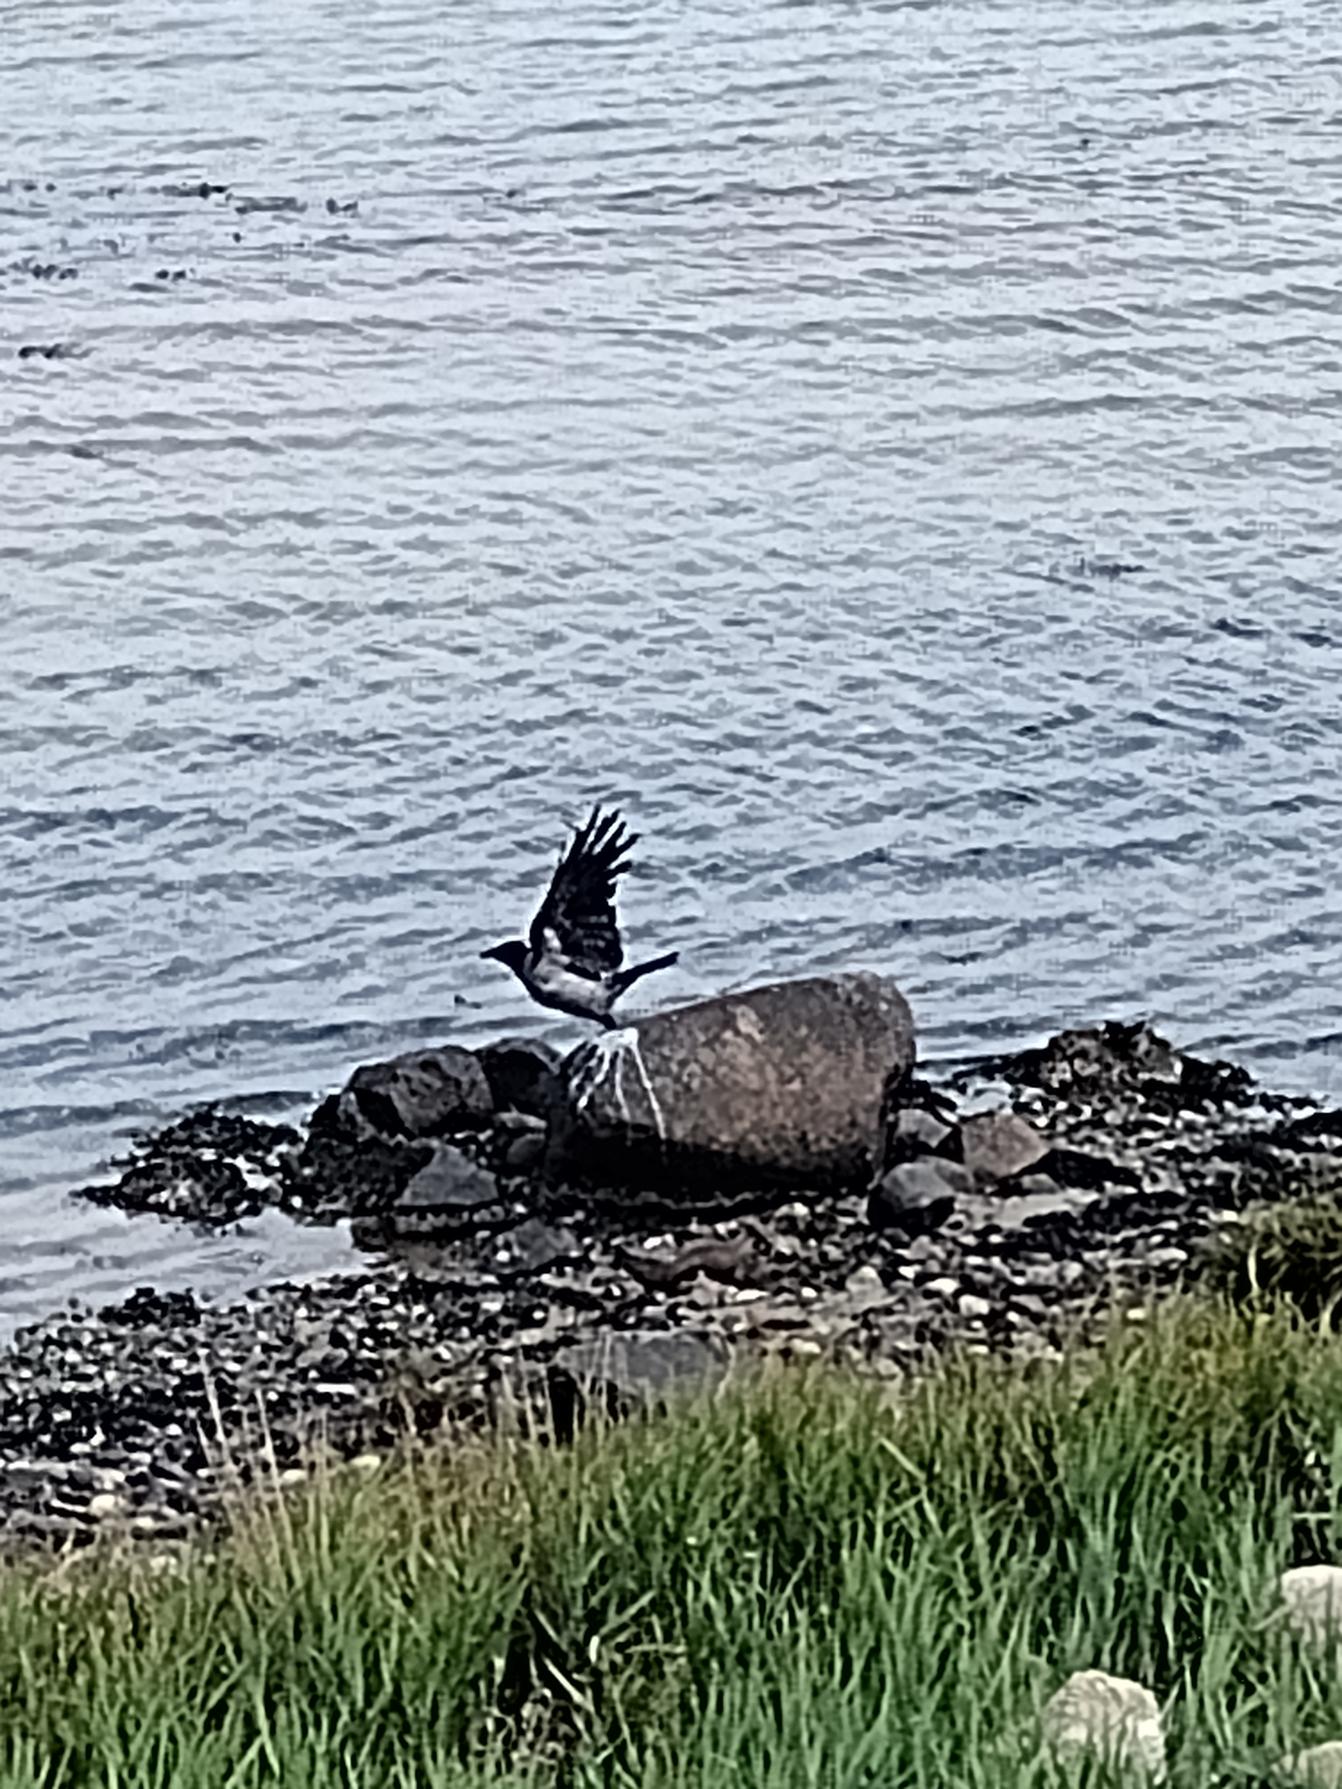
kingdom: Animalia
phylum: Chordata
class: Aves
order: Passeriformes
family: Corvidae
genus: Corvus
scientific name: Corvus cornix
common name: Gråkrage
